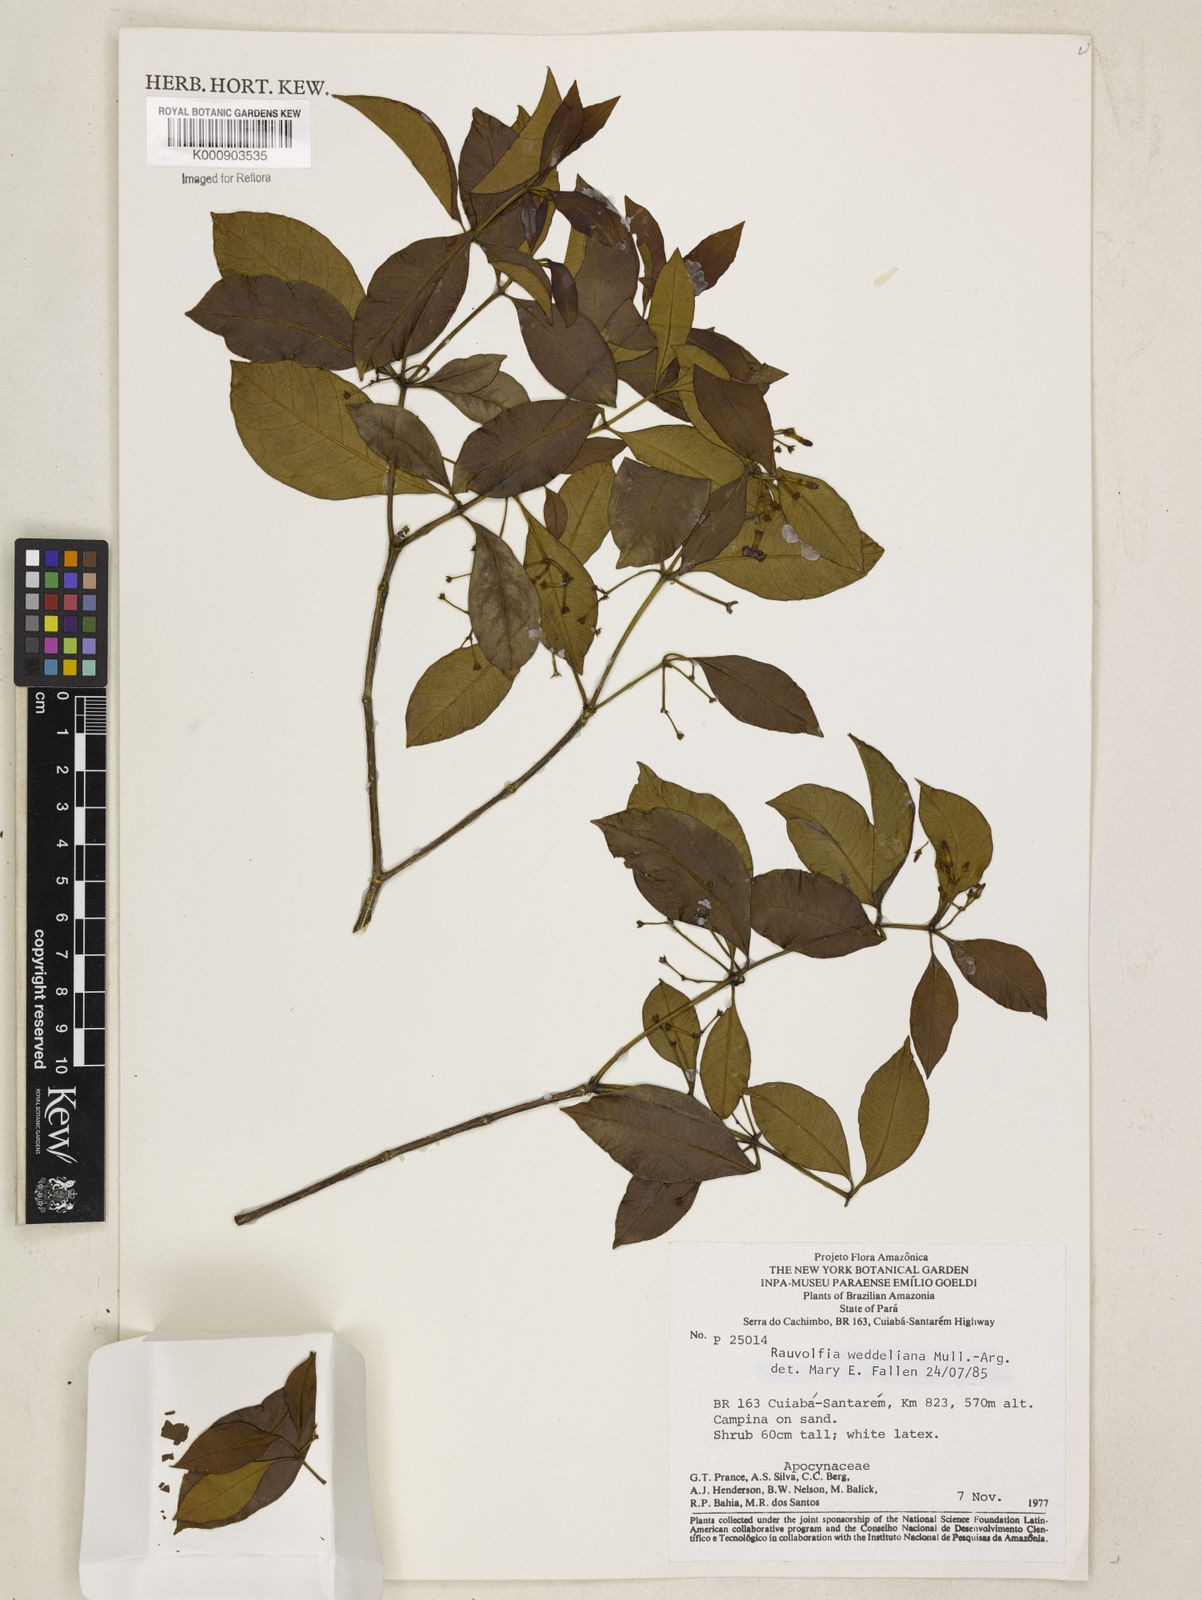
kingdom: Plantae
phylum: Tracheophyta
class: Magnoliopsida
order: Gentianales
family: Apocynaceae
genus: Rauvolfia
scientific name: Rauvolfia
